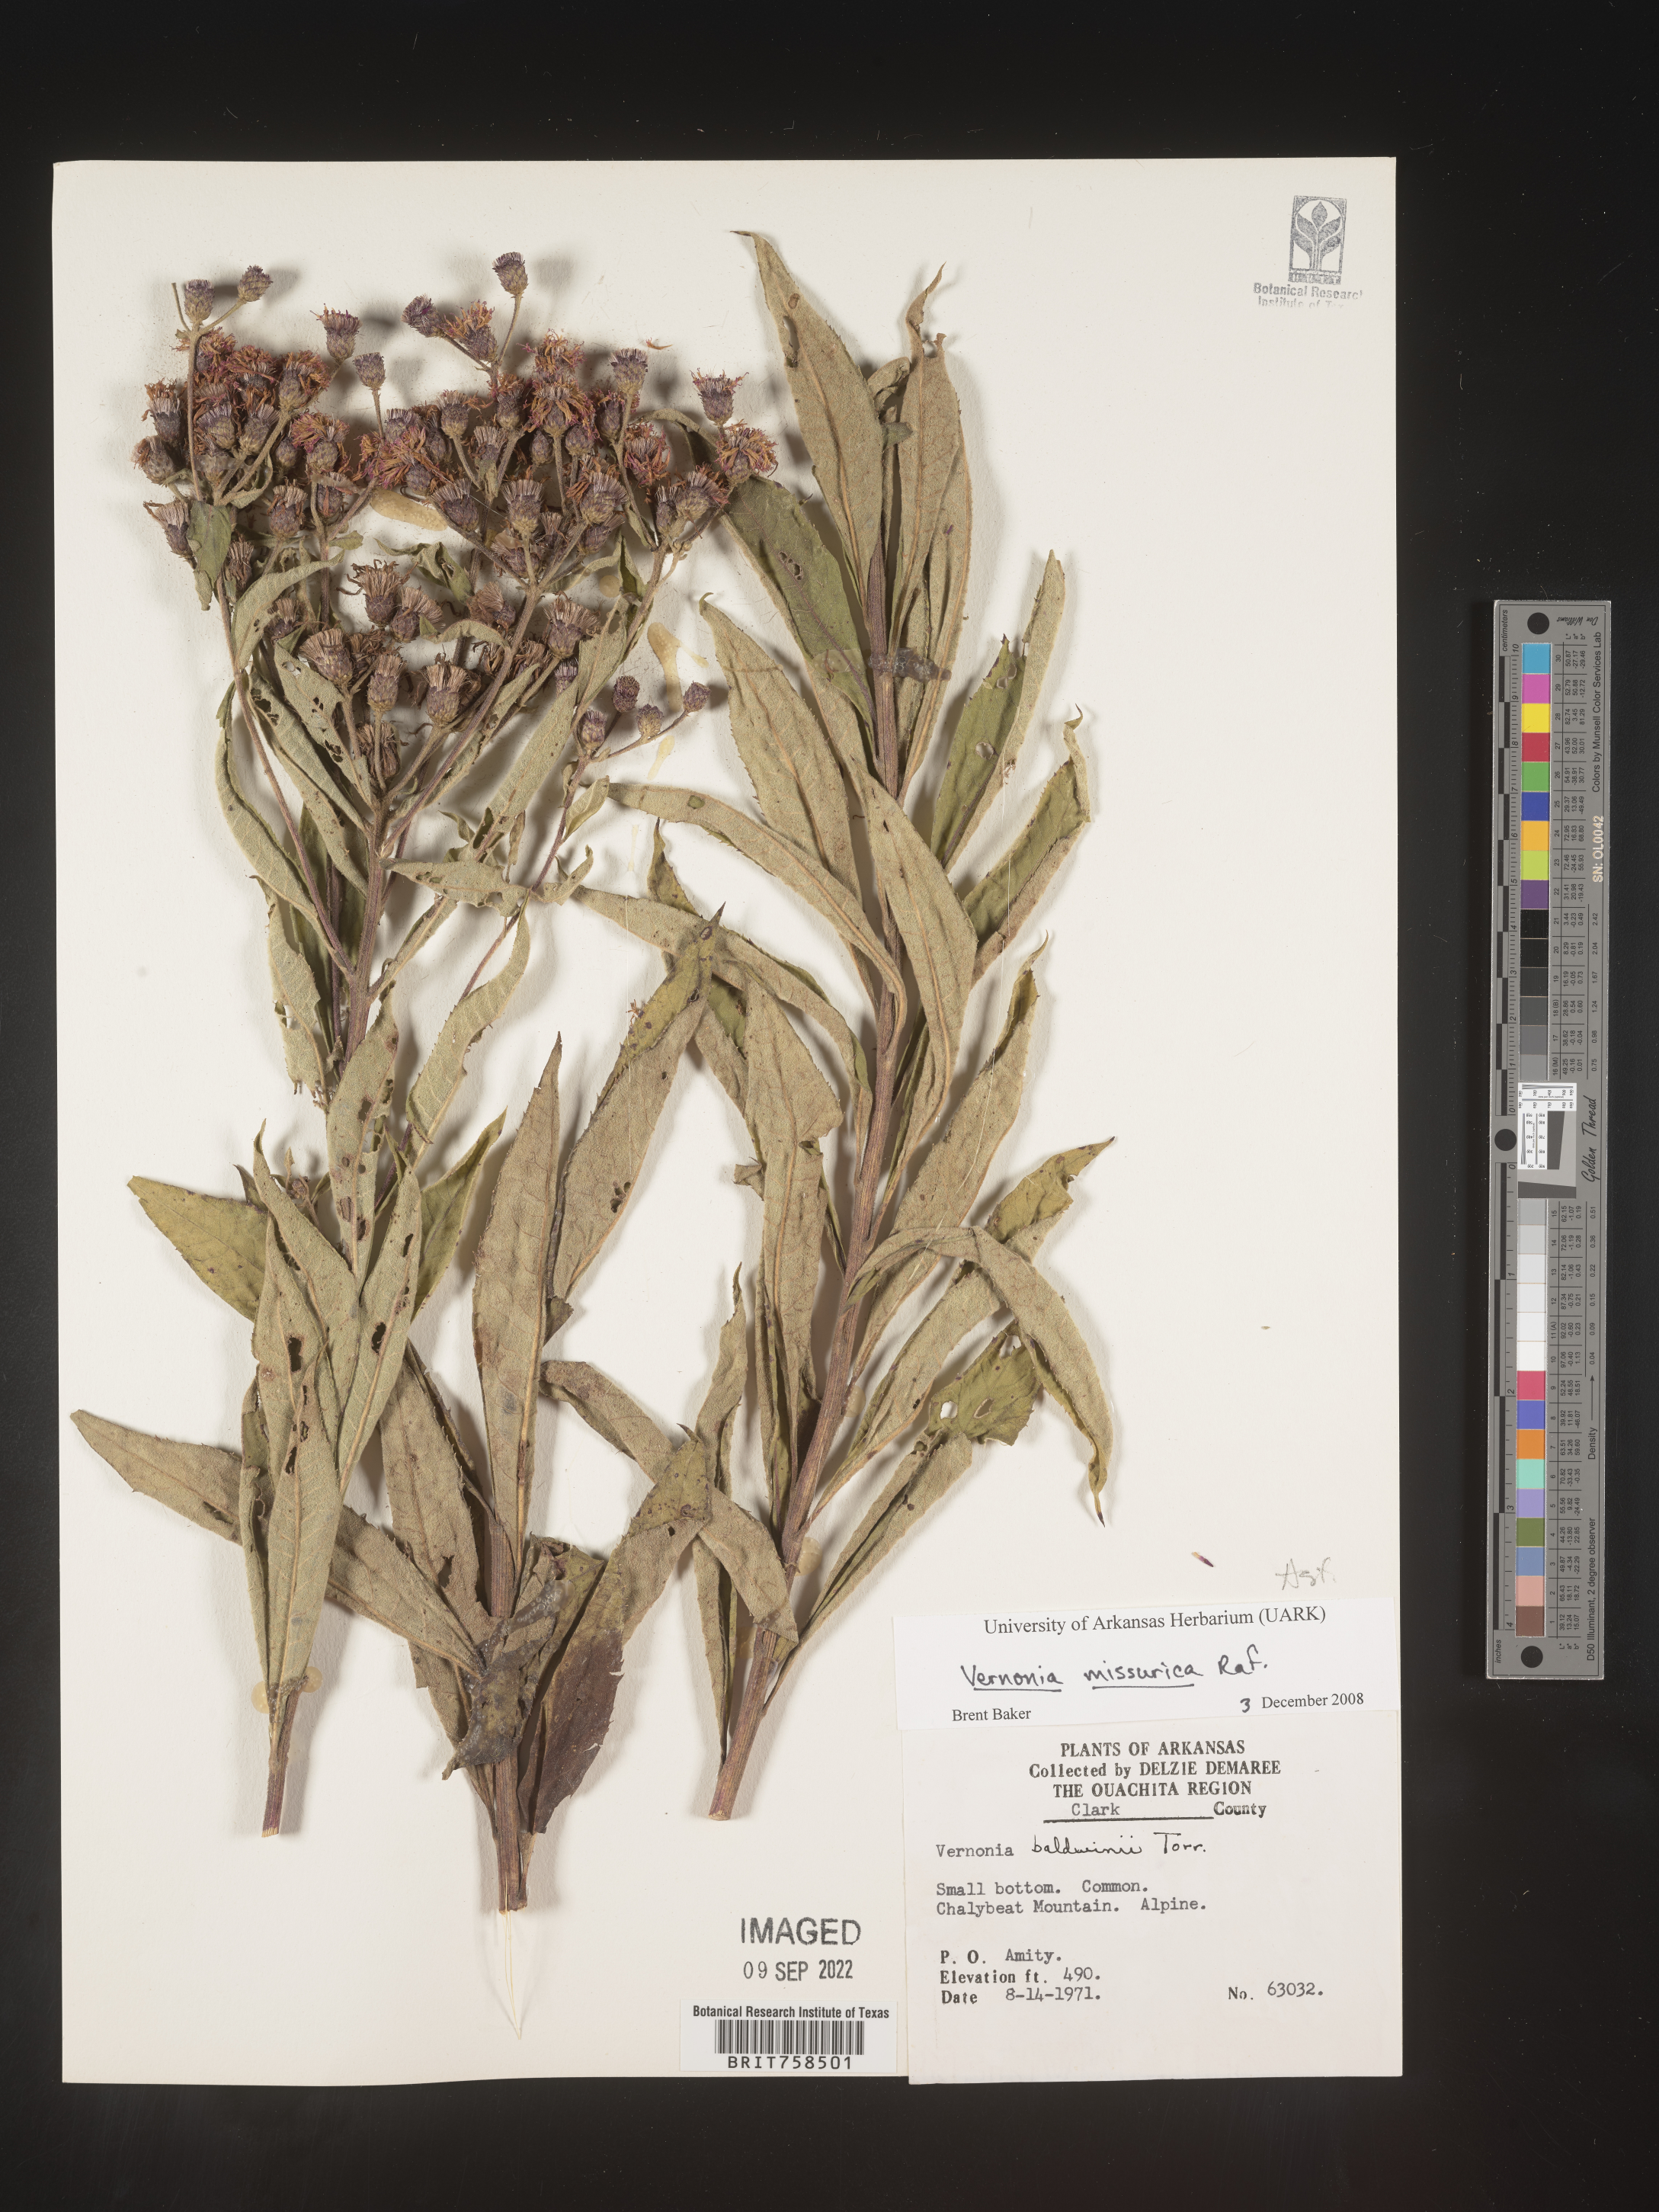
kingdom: Plantae
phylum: Tracheophyta
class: Magnoliopsida
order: Asterales
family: Asteraceae
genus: Vernonia
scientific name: Vernonia missurica
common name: Missouri ironweed
